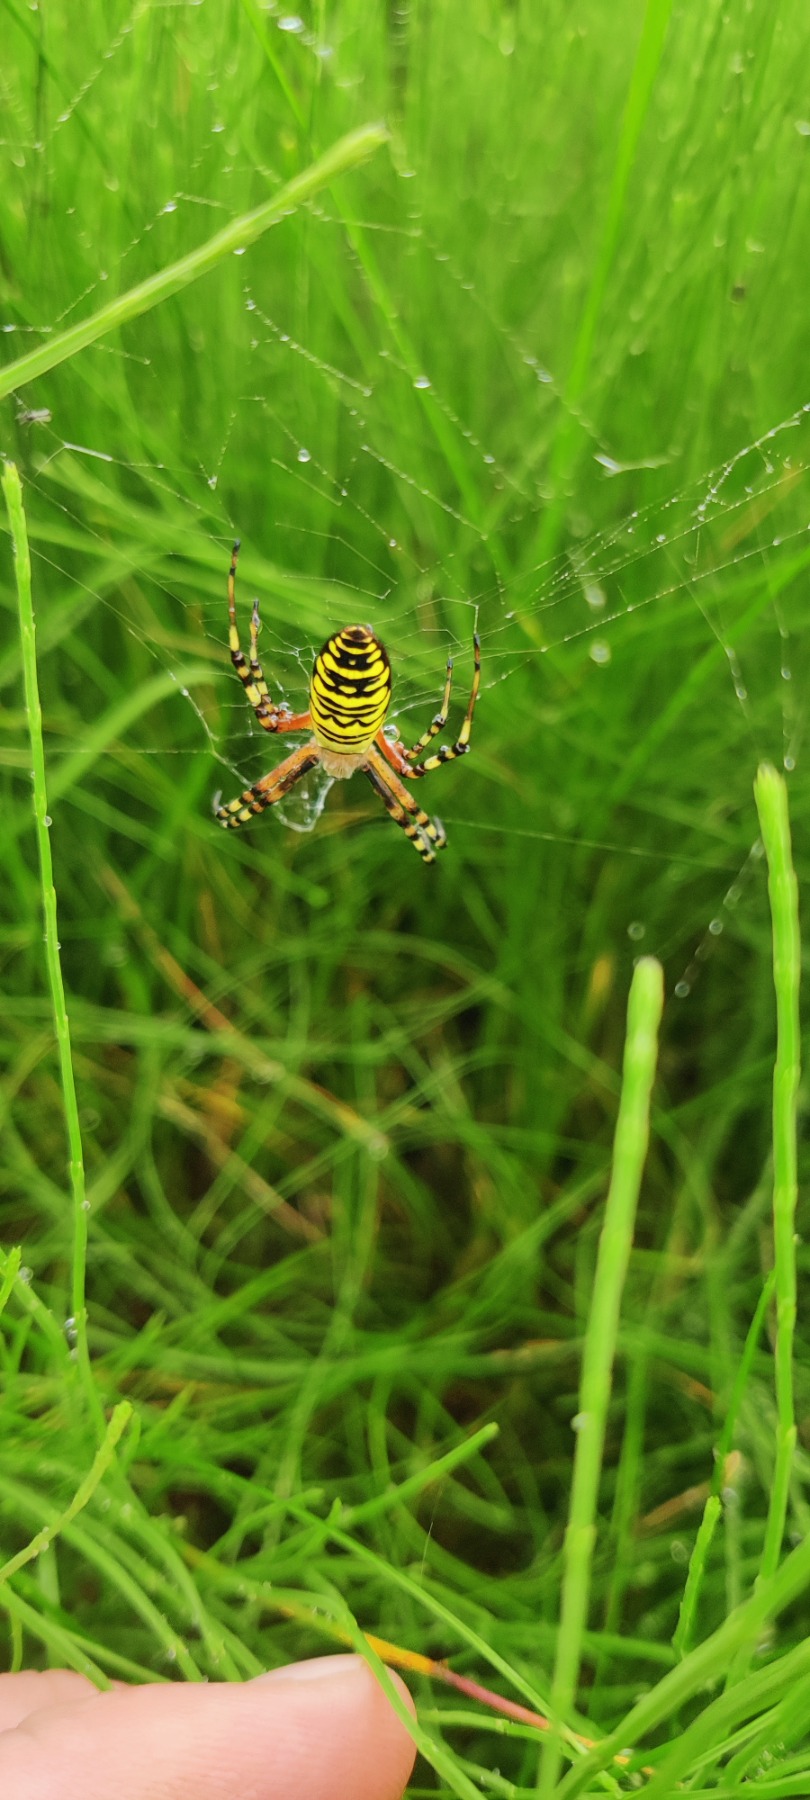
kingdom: Animalia
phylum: Arthropoda
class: Arachnida
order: Araneae
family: Araneidae
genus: Argiope
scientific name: Argiope bruennichi
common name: Hvepseedderkop
